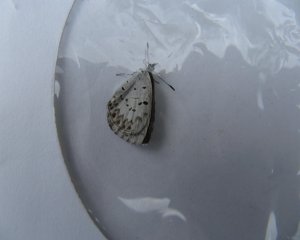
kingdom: Animalia
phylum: Arthropoda
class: Insecta
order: Lepidoptera
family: Lycaenidae
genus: Celastrina
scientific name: Celastrina
